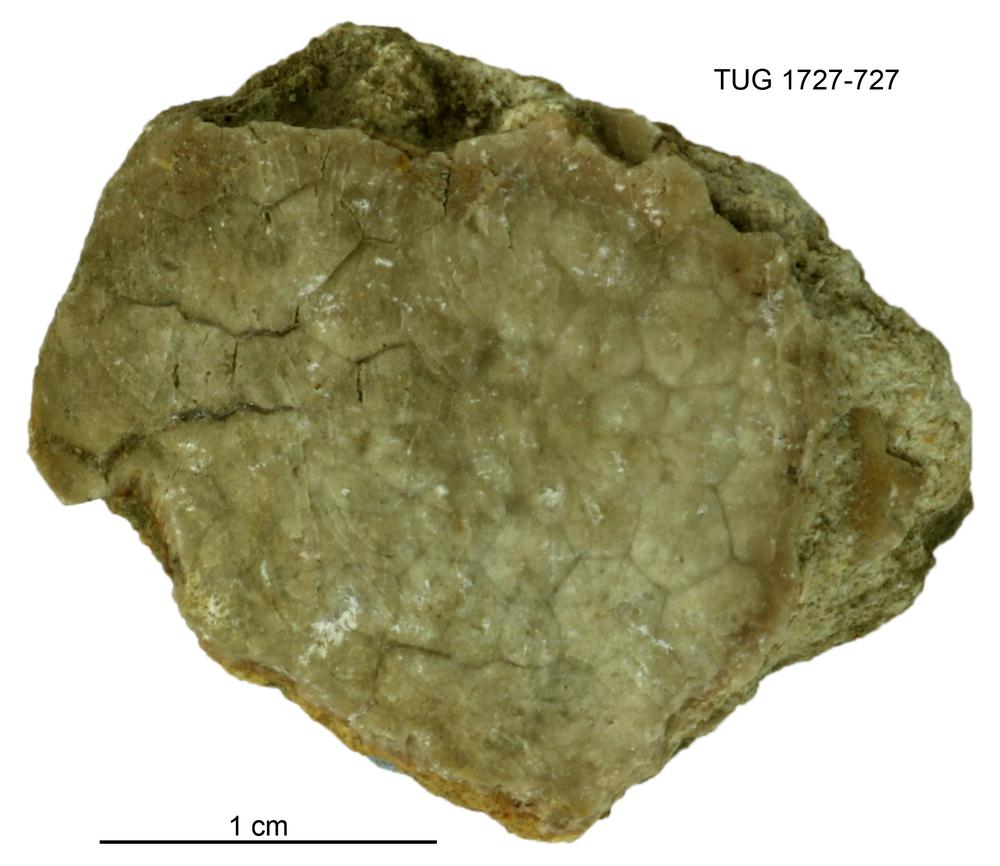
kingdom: Animalia
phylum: Echinodermata
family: Heckerocrinidae
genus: Heckerocrinus
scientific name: Heckerocrinus
